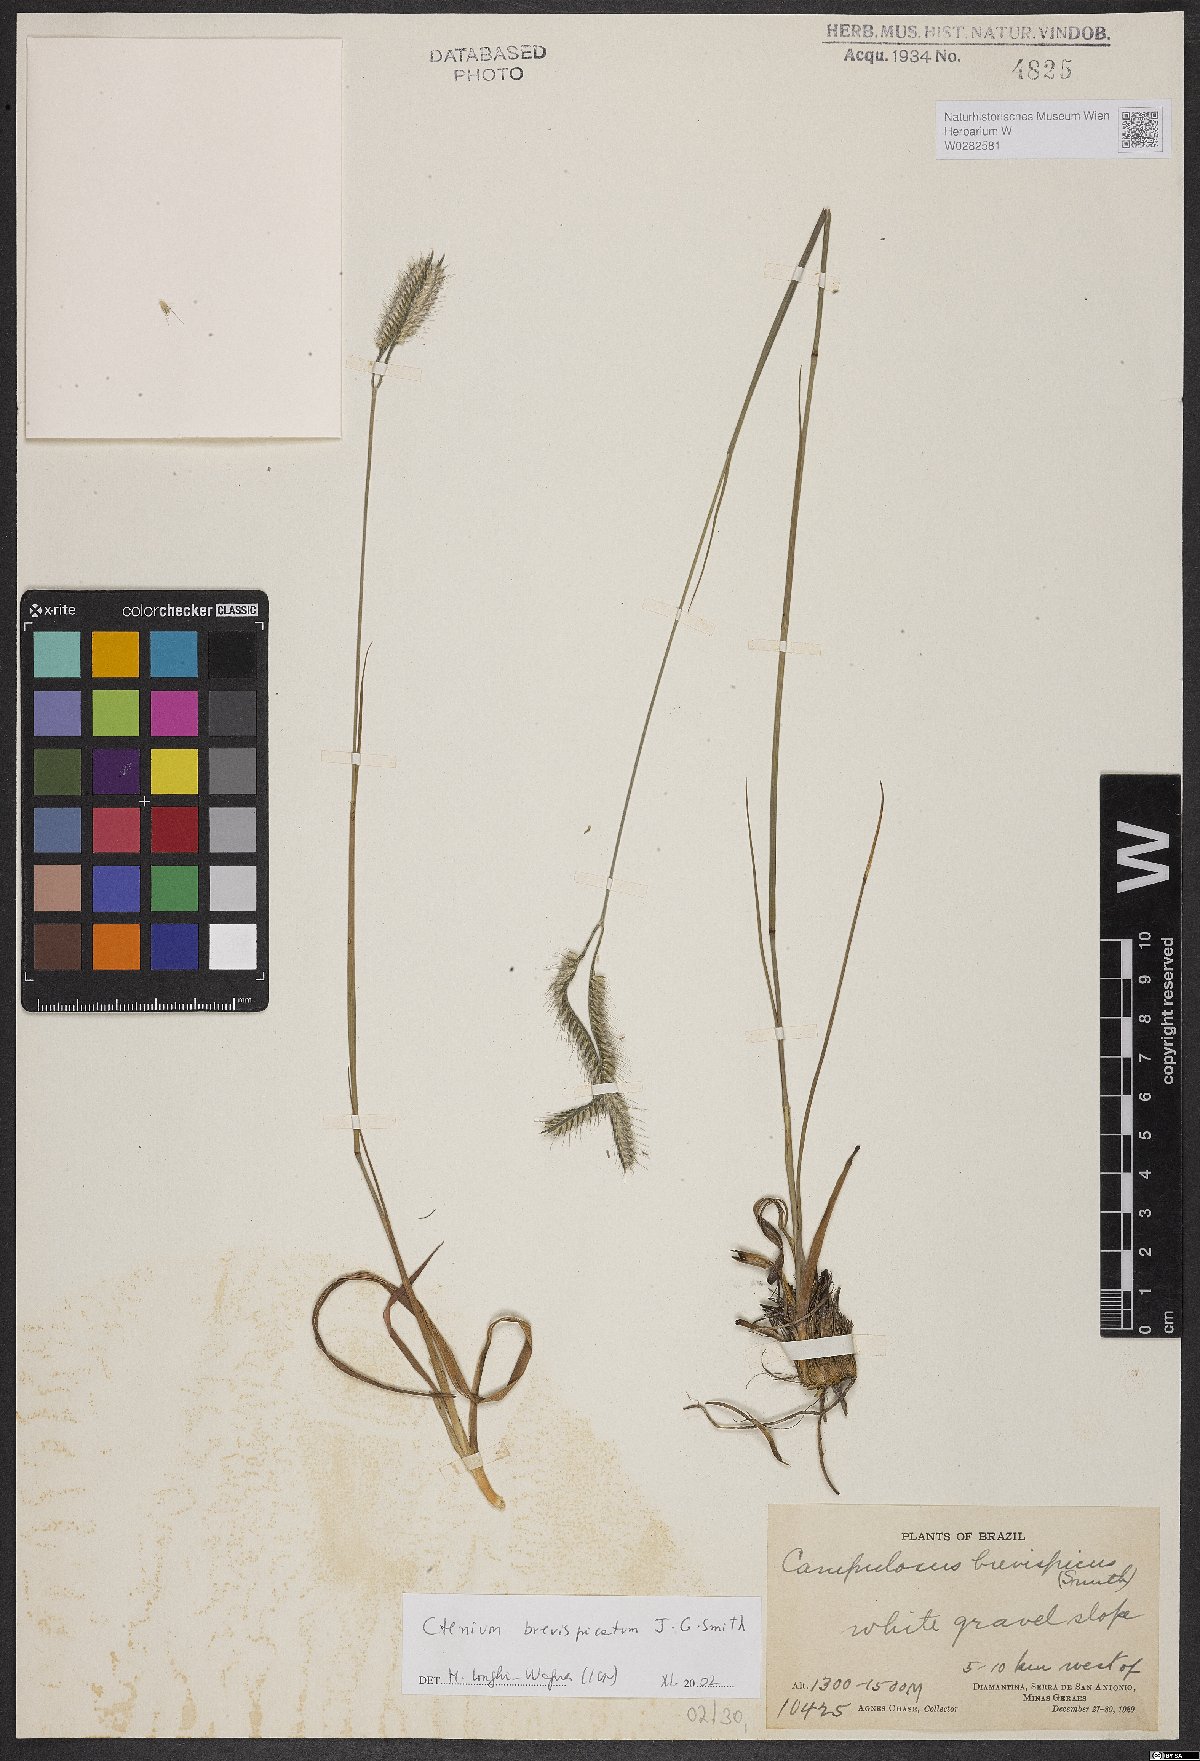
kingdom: Plantae
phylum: Tracheophyta
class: Liliopsida
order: Poales
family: Poaceae
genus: Ctenium
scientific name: Ctenium brevispicatum
